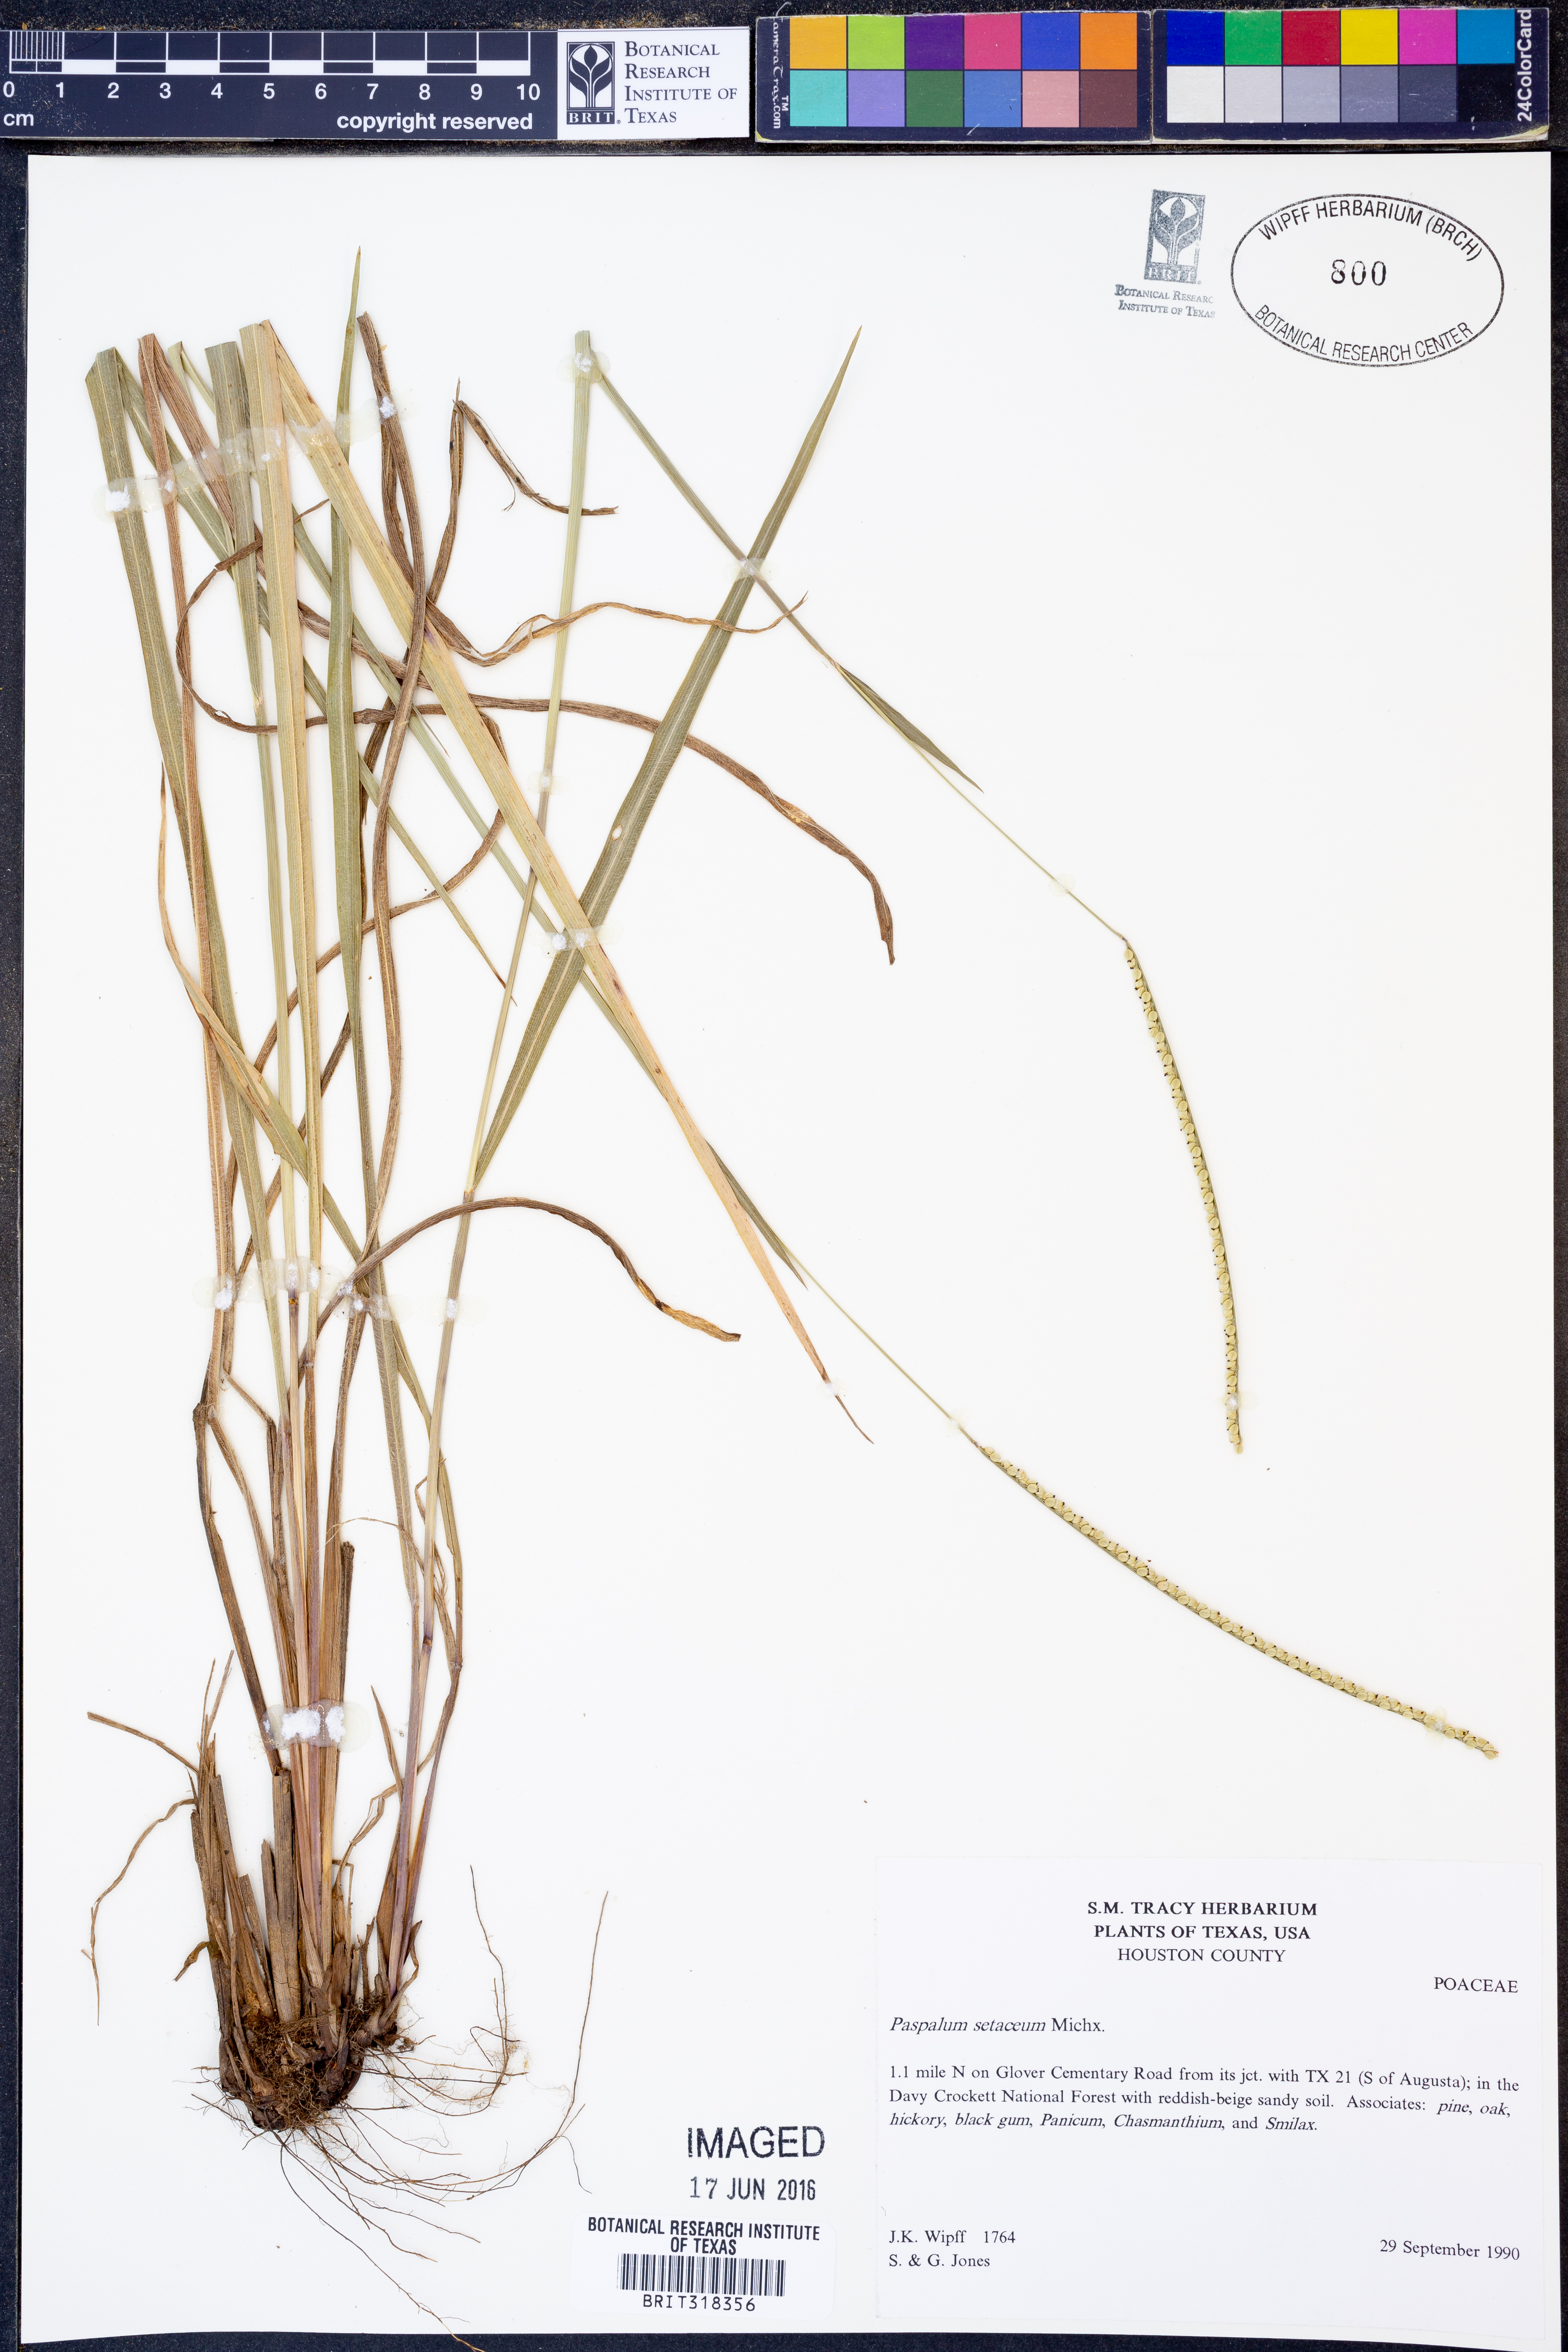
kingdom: Plantae
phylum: Tracheophyta
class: Liliopsida
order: Poales
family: Poaceae
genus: Paspalum
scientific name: Paspalum setaceum
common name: Slender paspalum
